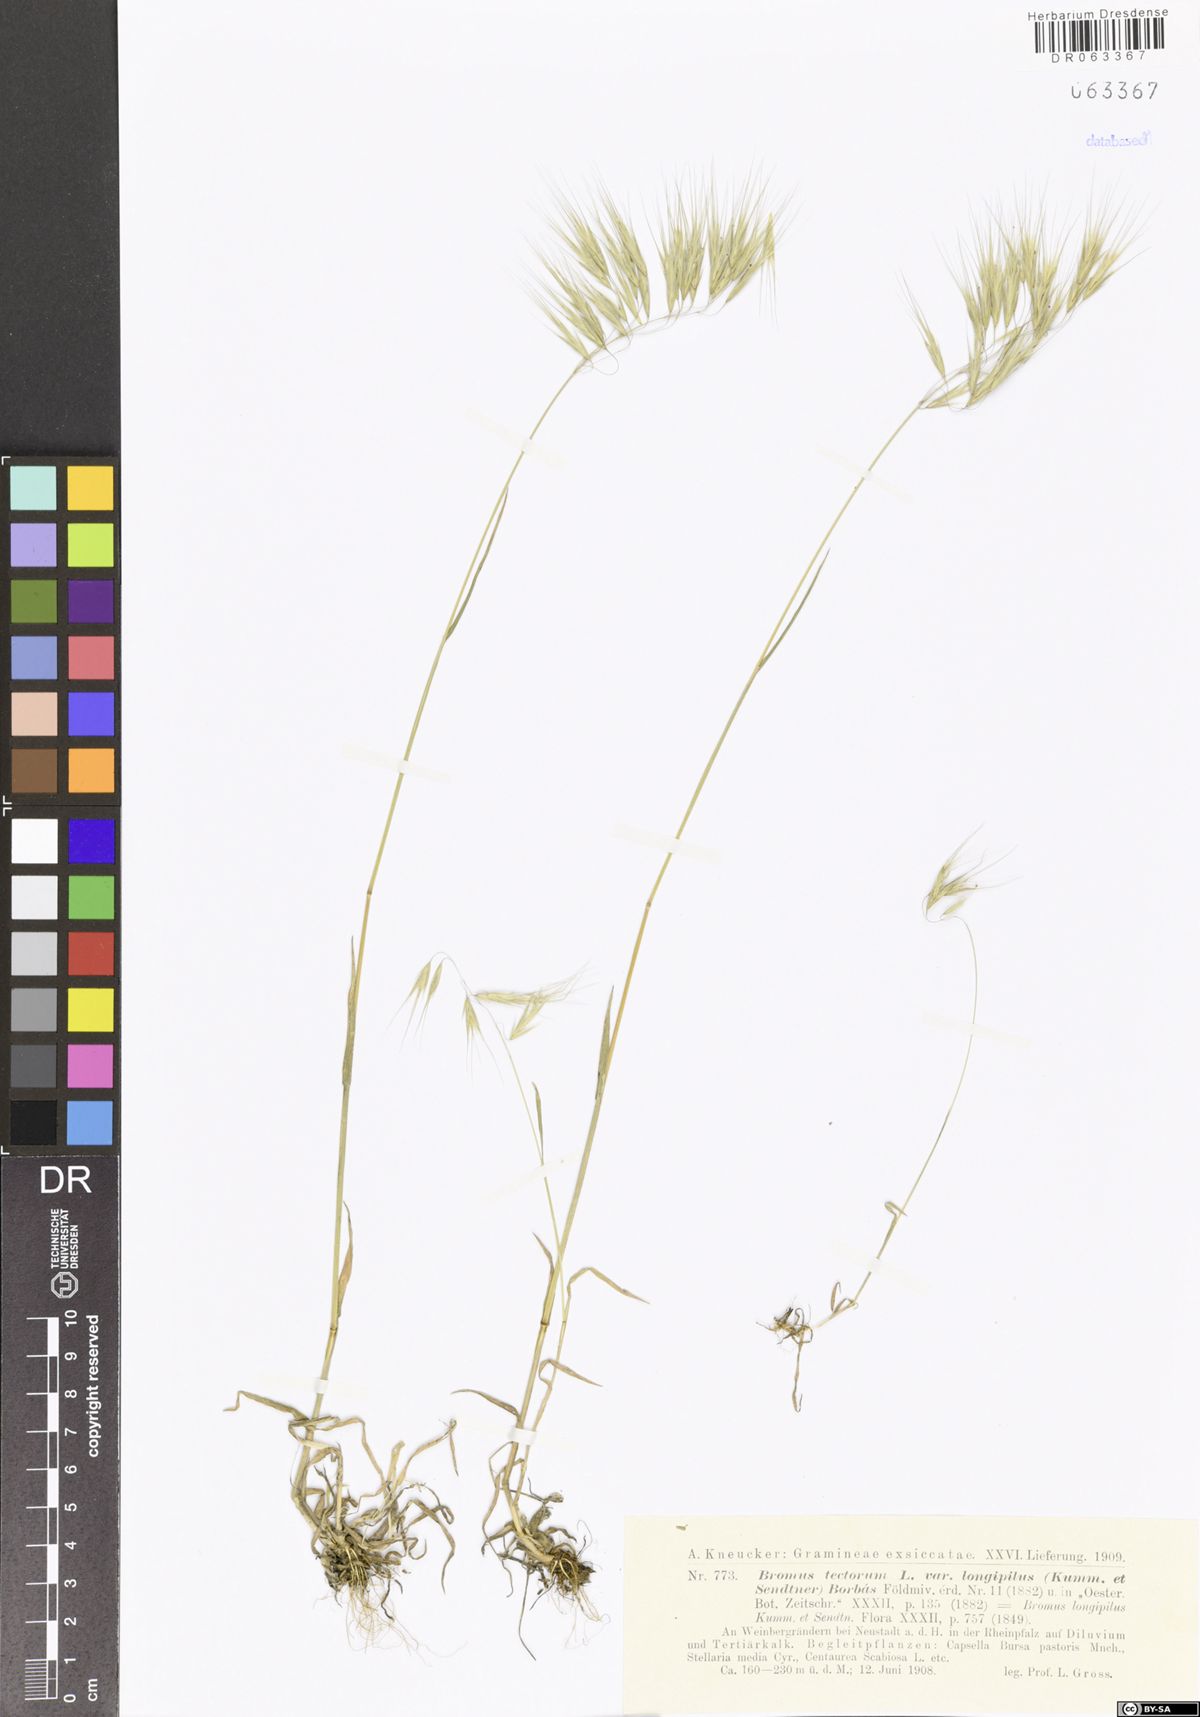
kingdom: Plantae
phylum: Tracheophyta
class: Liliopsida
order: Poales
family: Poaceae
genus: Bromus
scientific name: Bromus tectorum
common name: Cheatgrass
